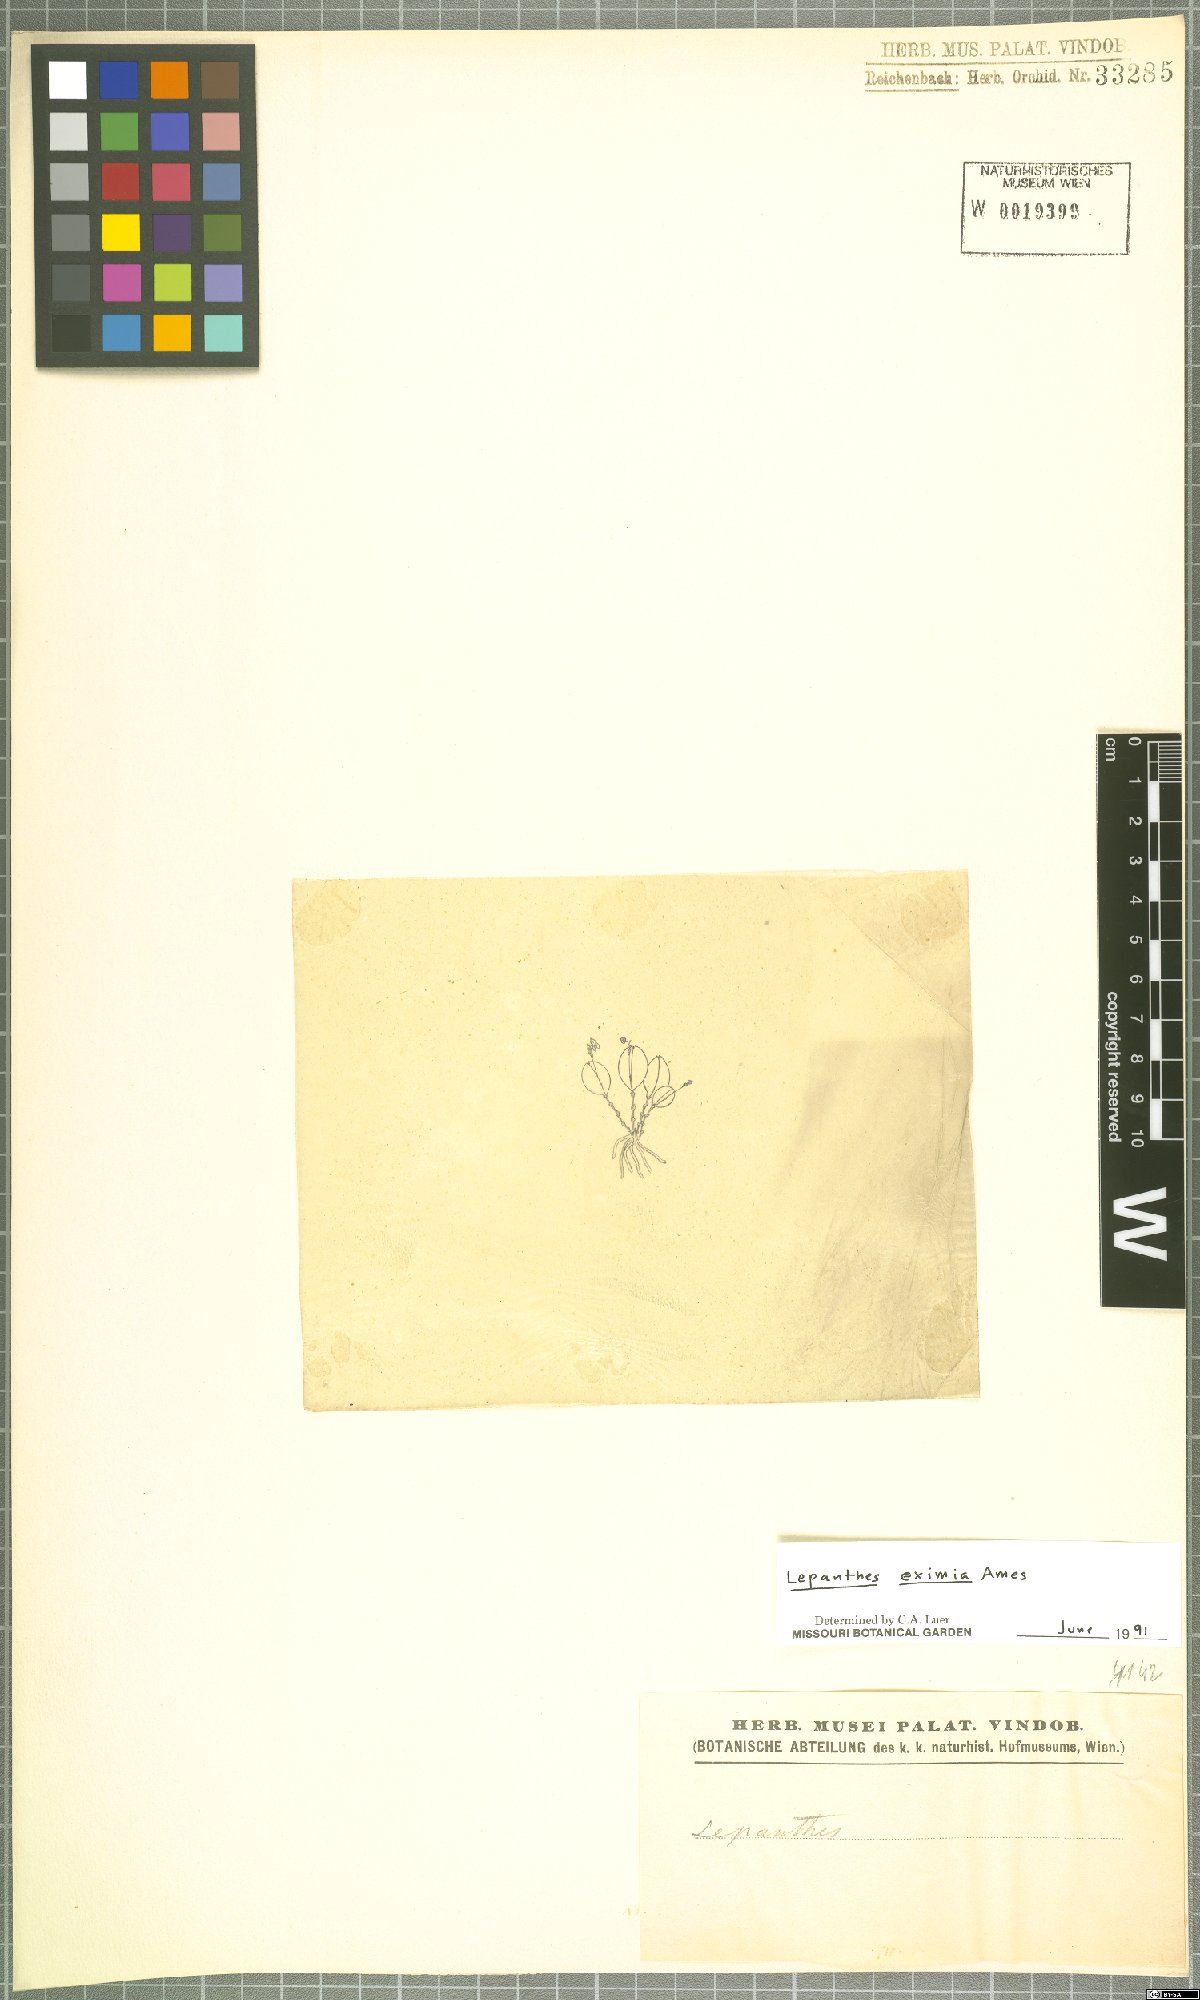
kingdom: Plantae
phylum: Tracheophyta
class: Liliopsida
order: Asparagales
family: Orchidaceae
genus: Lepanthes
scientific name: Lepanthes eximia
